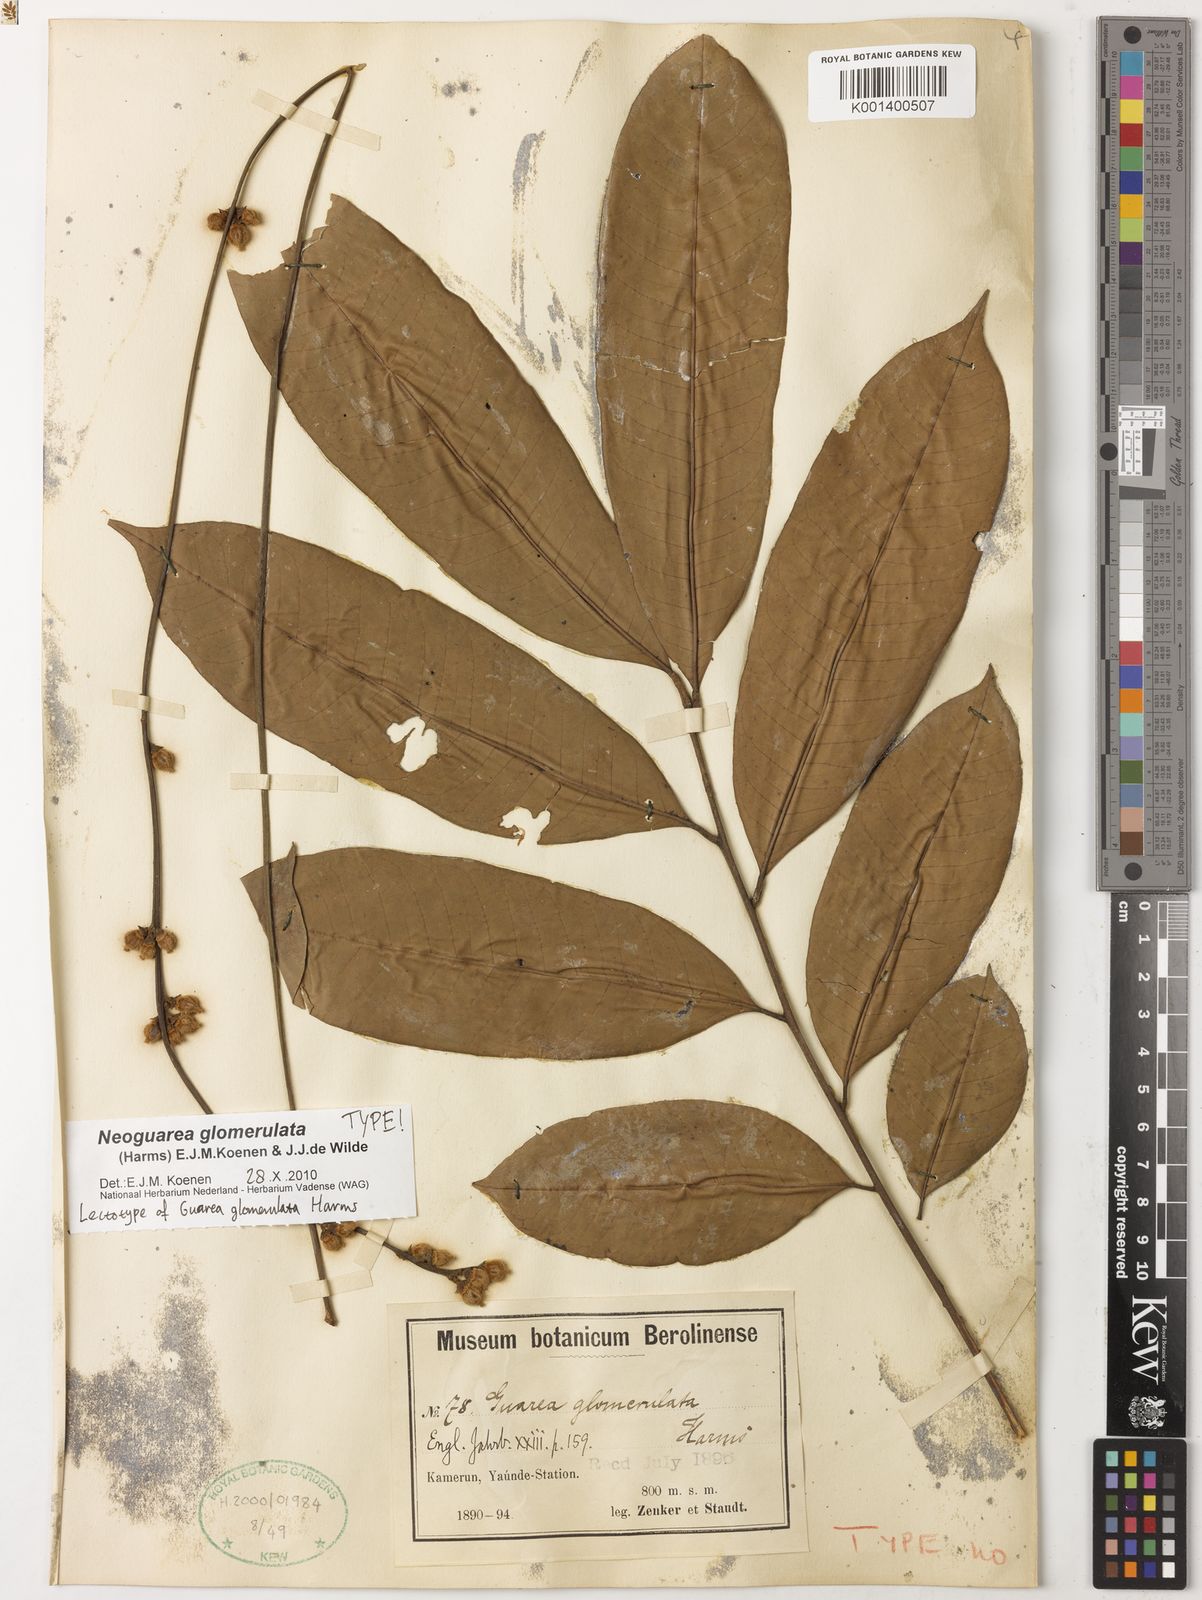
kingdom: Plantae
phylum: Tracheophyta
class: Magnoliopsida
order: Sapindales
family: Meliaceae
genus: Neoguarea
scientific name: Neoguarea glomerulata
